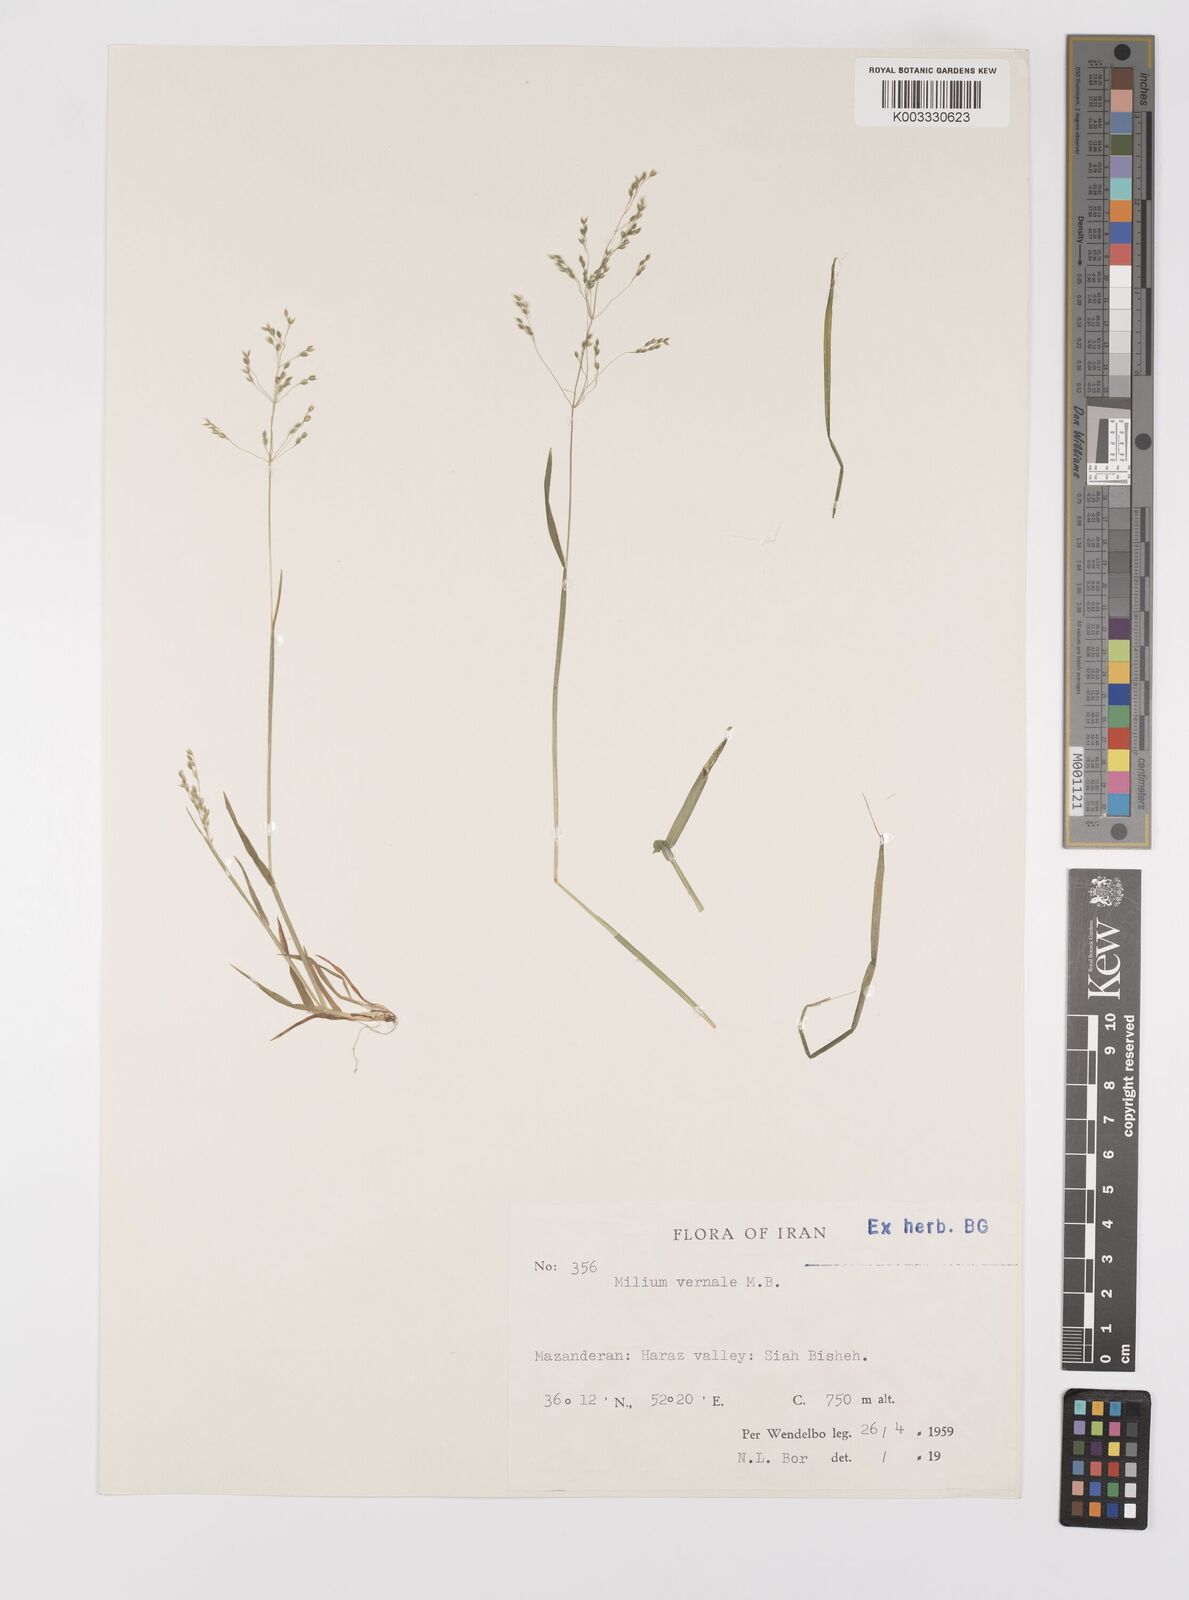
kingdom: Plantae
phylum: Tracheophyta
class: Liliopsida
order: Poales
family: Poaceae
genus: Milium
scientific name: Milium vernale
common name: Early millet
